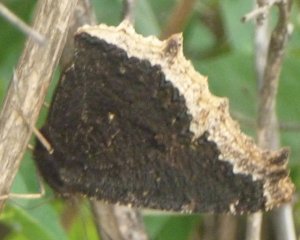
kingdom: Animalia
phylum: Arthropoda
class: Insecta
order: Lepidoptera
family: Nymphalidae
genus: Nymphalis
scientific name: Nymphalis antiopa
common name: Mourning Cloak
